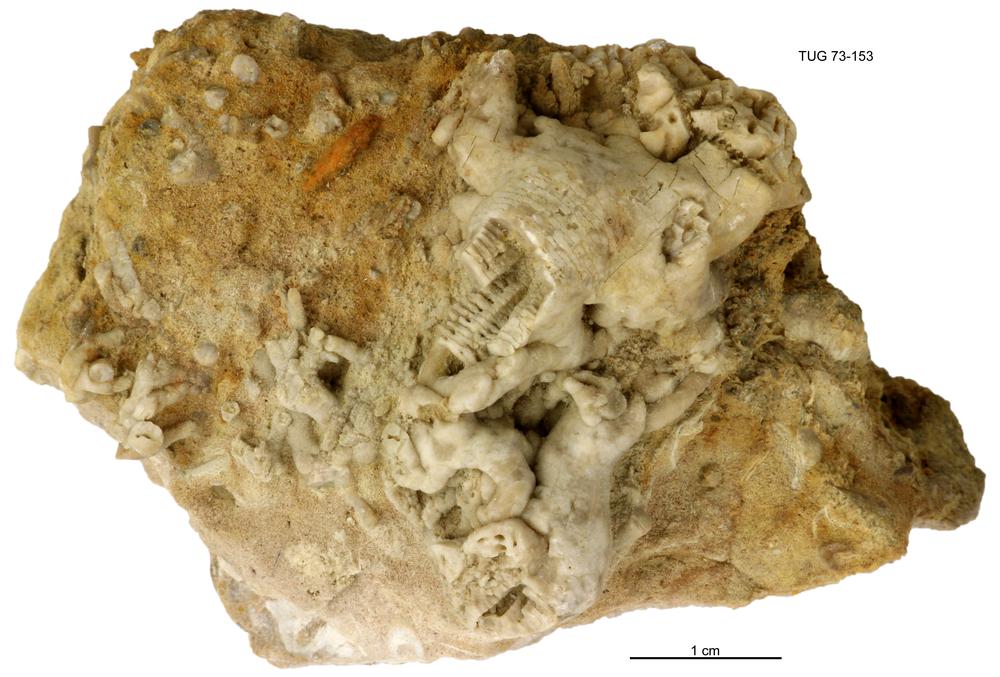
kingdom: Animalia
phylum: Echinodermata
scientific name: Echinodermata
